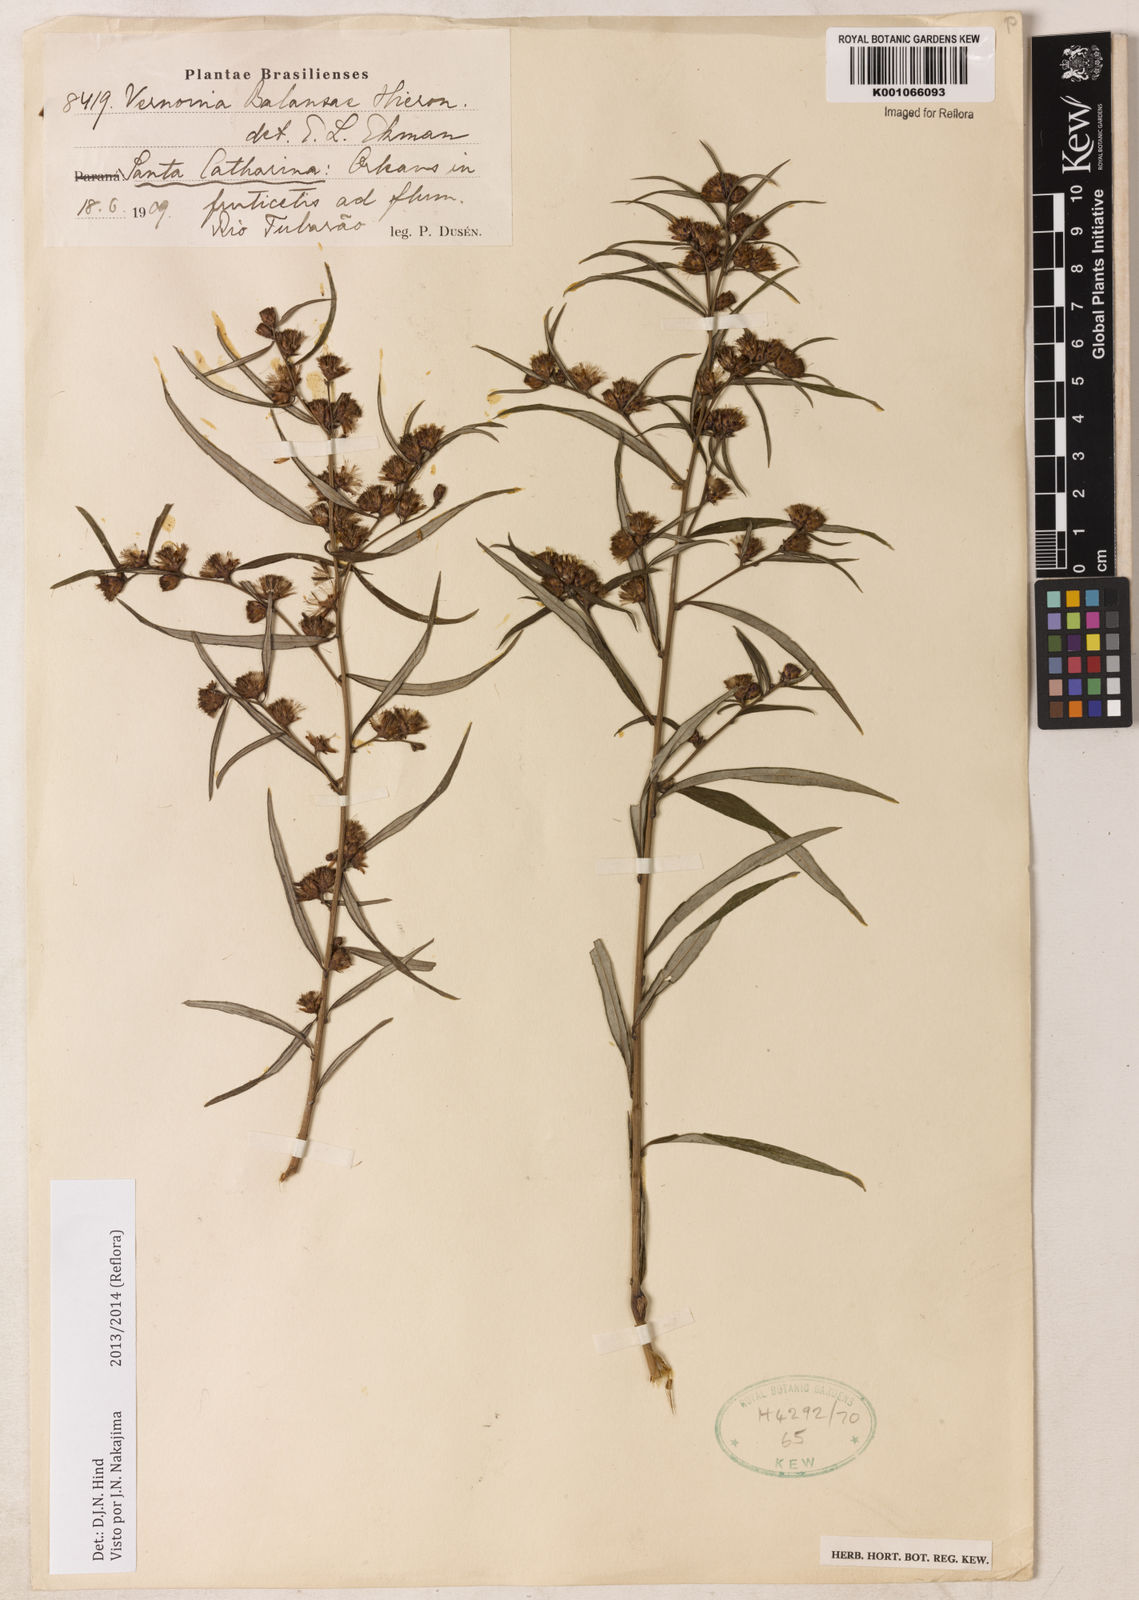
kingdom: Plantae
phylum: Tracheophyta
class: Magnoliopsida
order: Asterales
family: Asteraceae
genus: Vernonia
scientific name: Vernonia balansae
